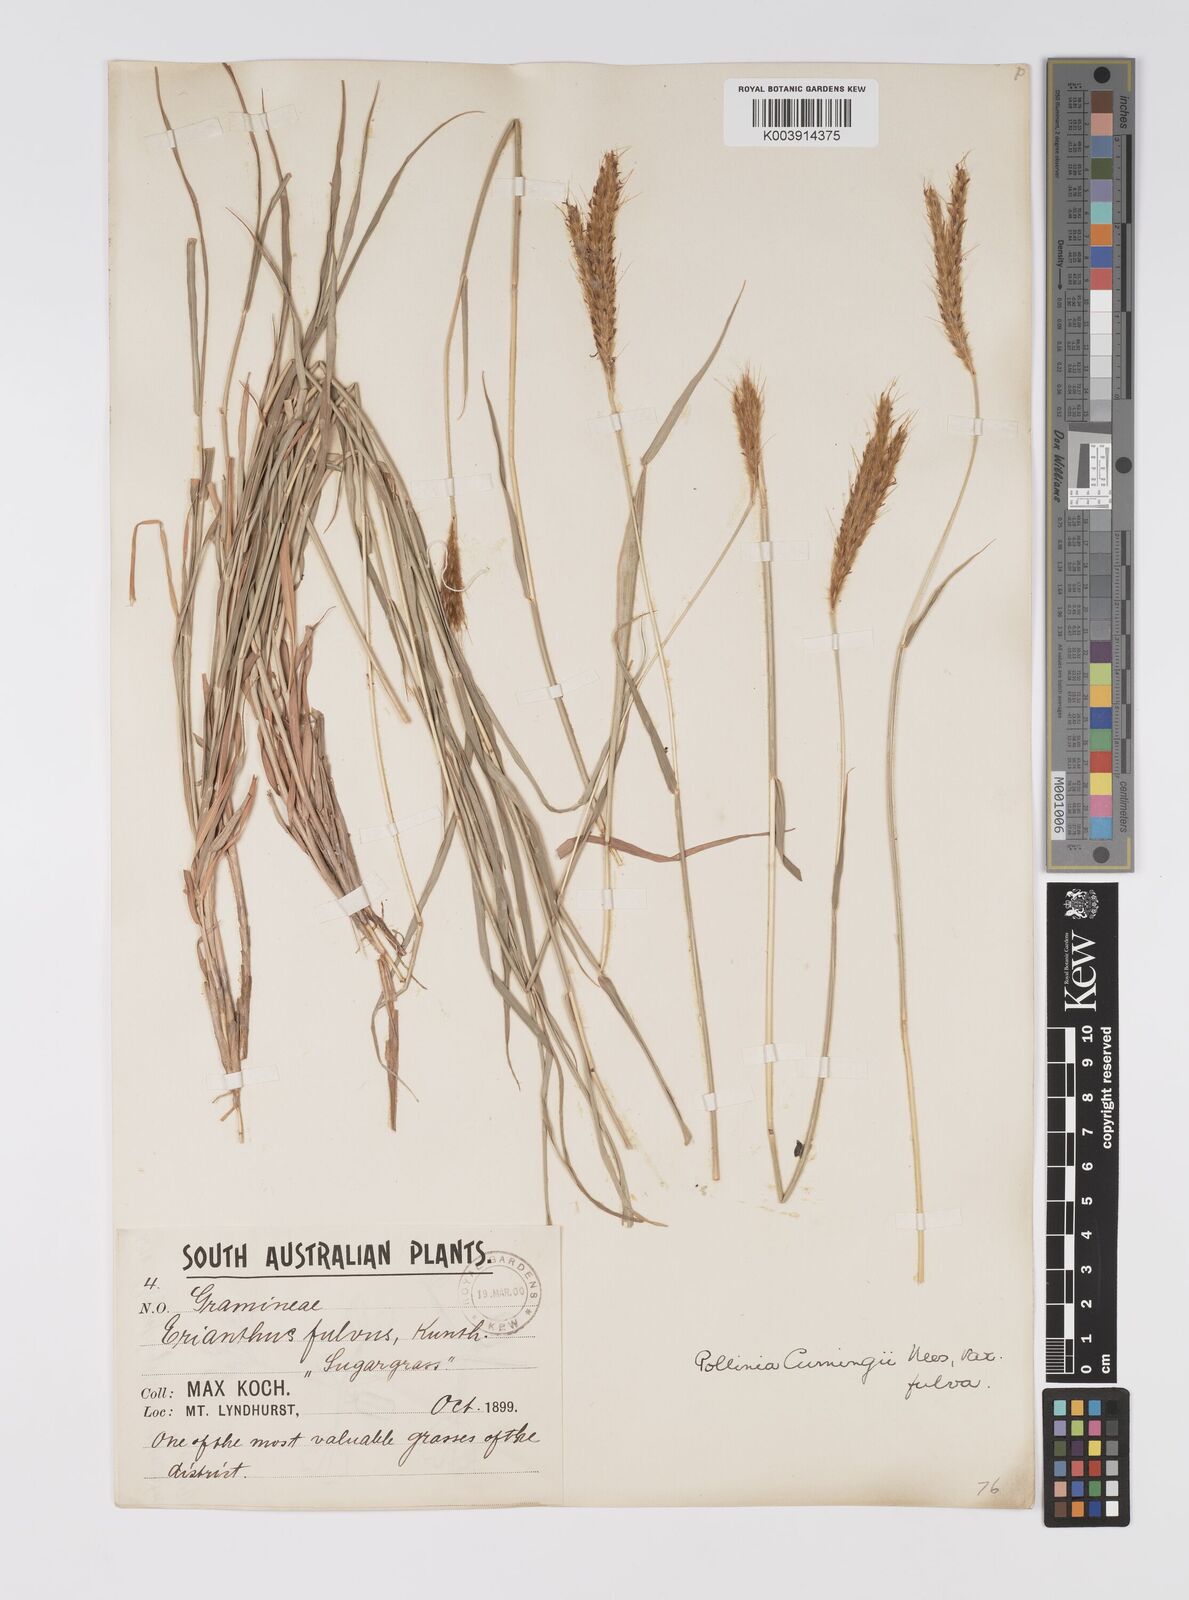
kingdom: Plantae
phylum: Tracheophyta
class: Liliopsida
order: Poales
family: Poaceae
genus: Eulalia
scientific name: Eulalia aurea
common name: Silky browntop
